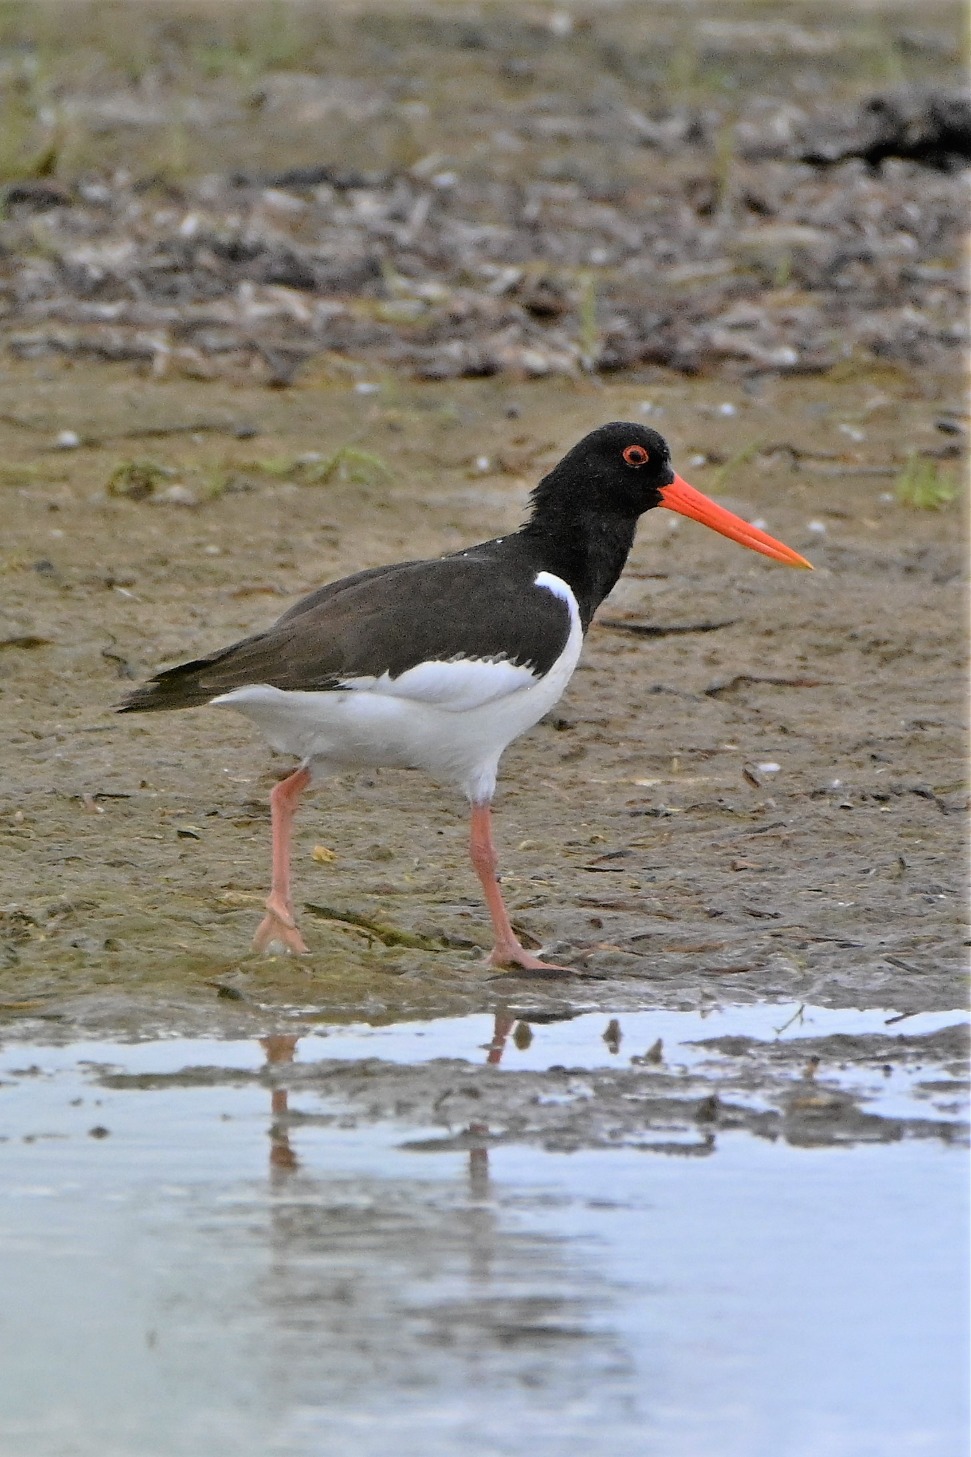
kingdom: Animalia
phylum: Chordata
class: Aves
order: Charadriiformes
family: Haematopodidae
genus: Haematopus
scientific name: Haematopus ostralegus
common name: Strandskade
